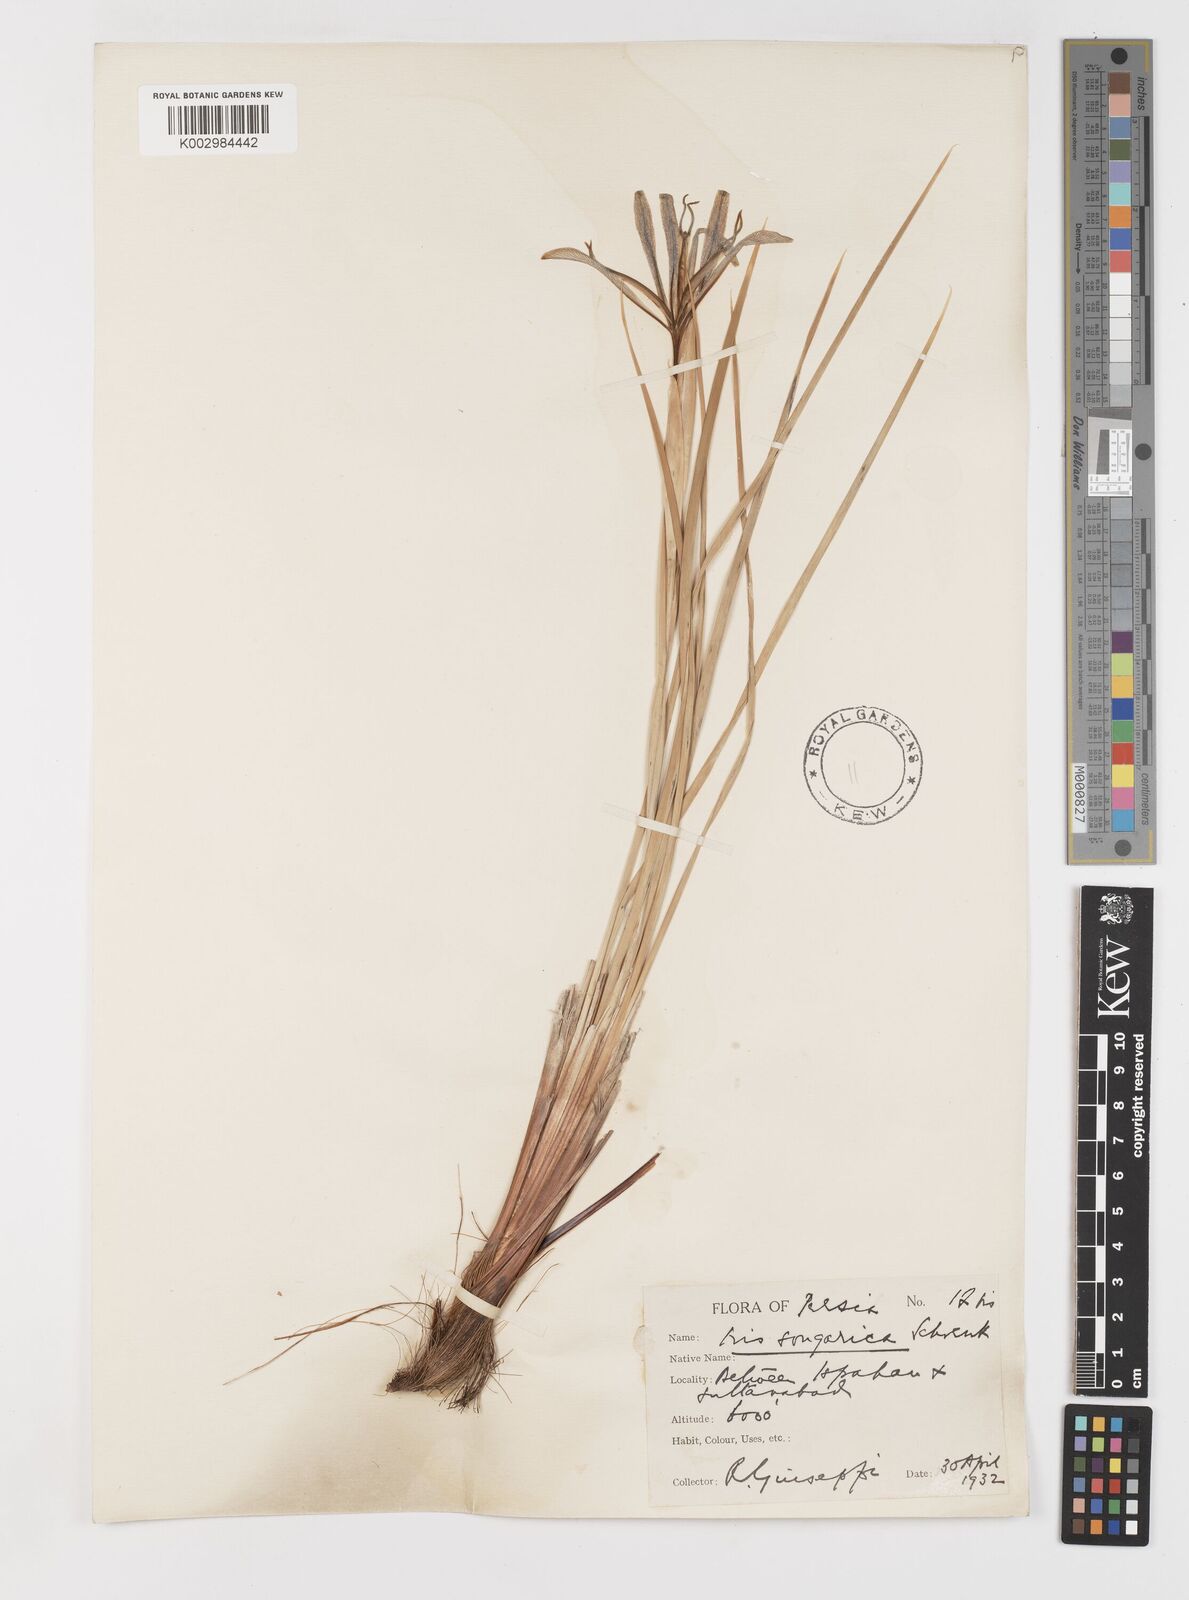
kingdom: Plantae
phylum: Tracheophyta
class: Liliopsida
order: Asparagales
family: Iridaceae
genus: Iris
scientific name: Iris songarica
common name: Songar iris
